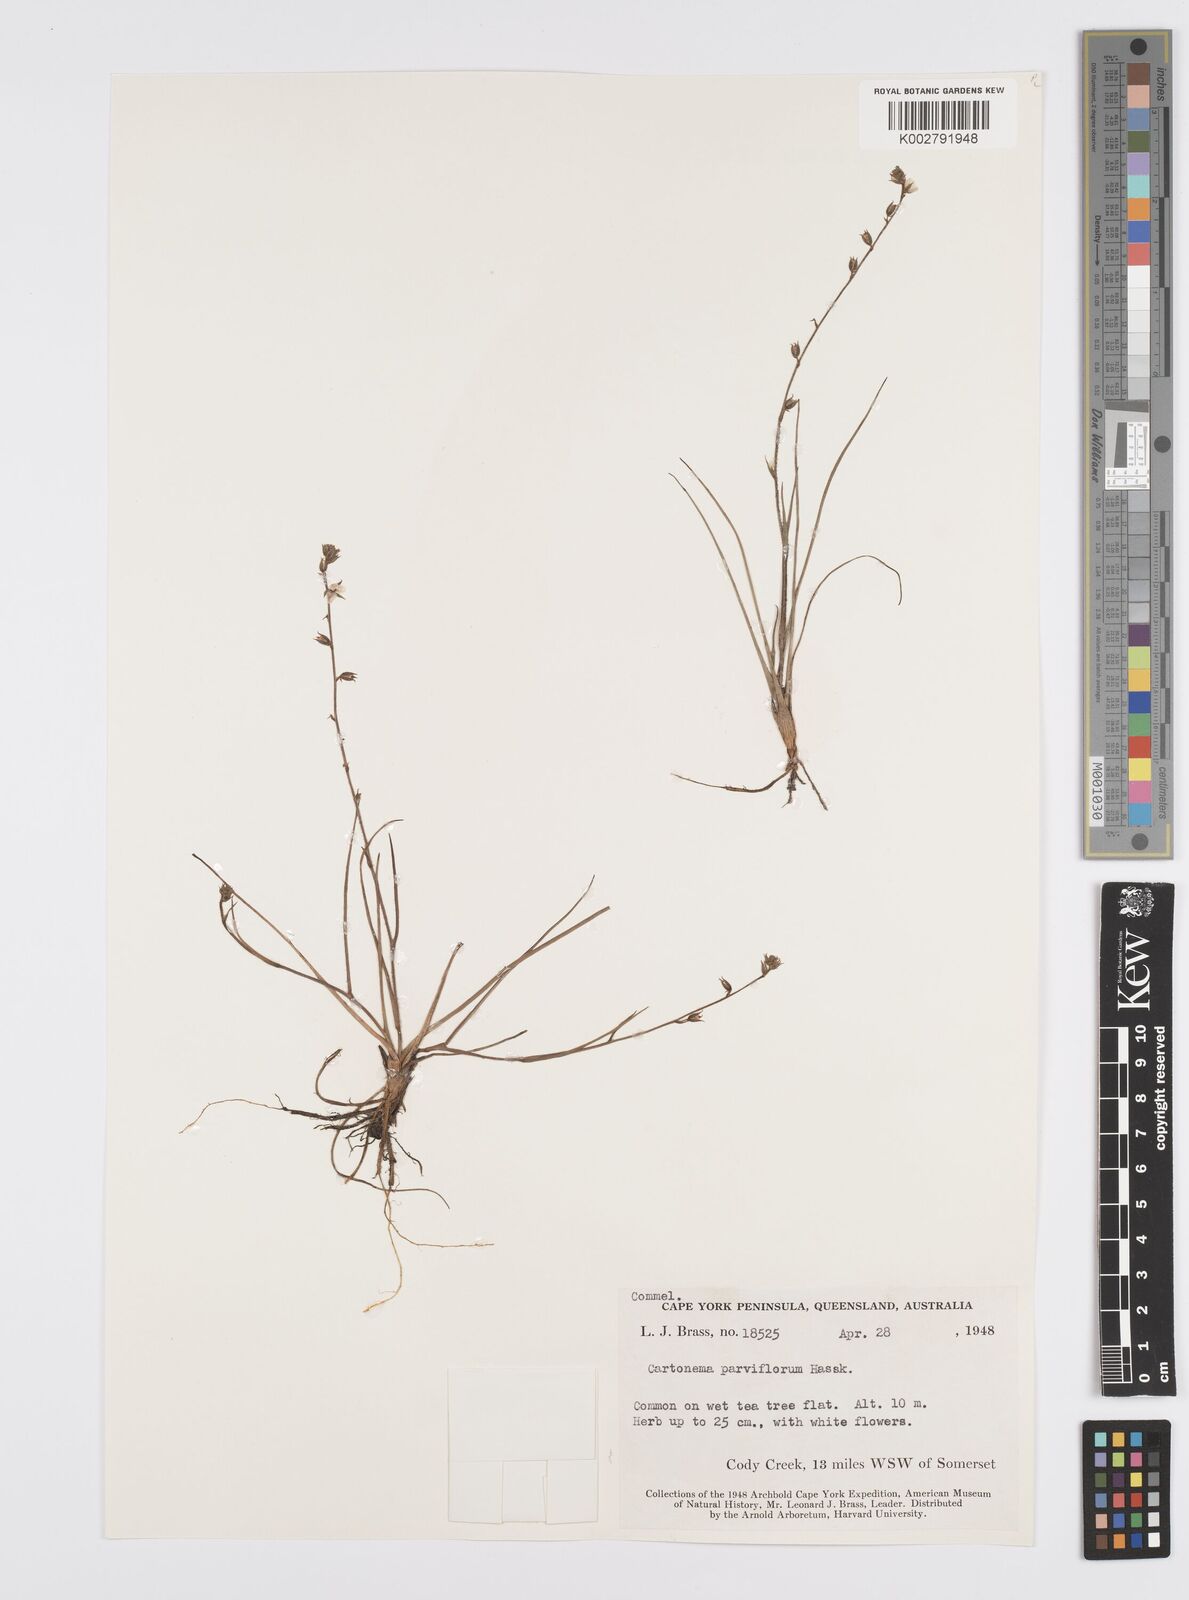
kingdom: Plantae
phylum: Tracheophyta
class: Liliopsida
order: Commelinales
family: Commelinaceae
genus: Cartonema
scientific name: Cartonema parviflorum
